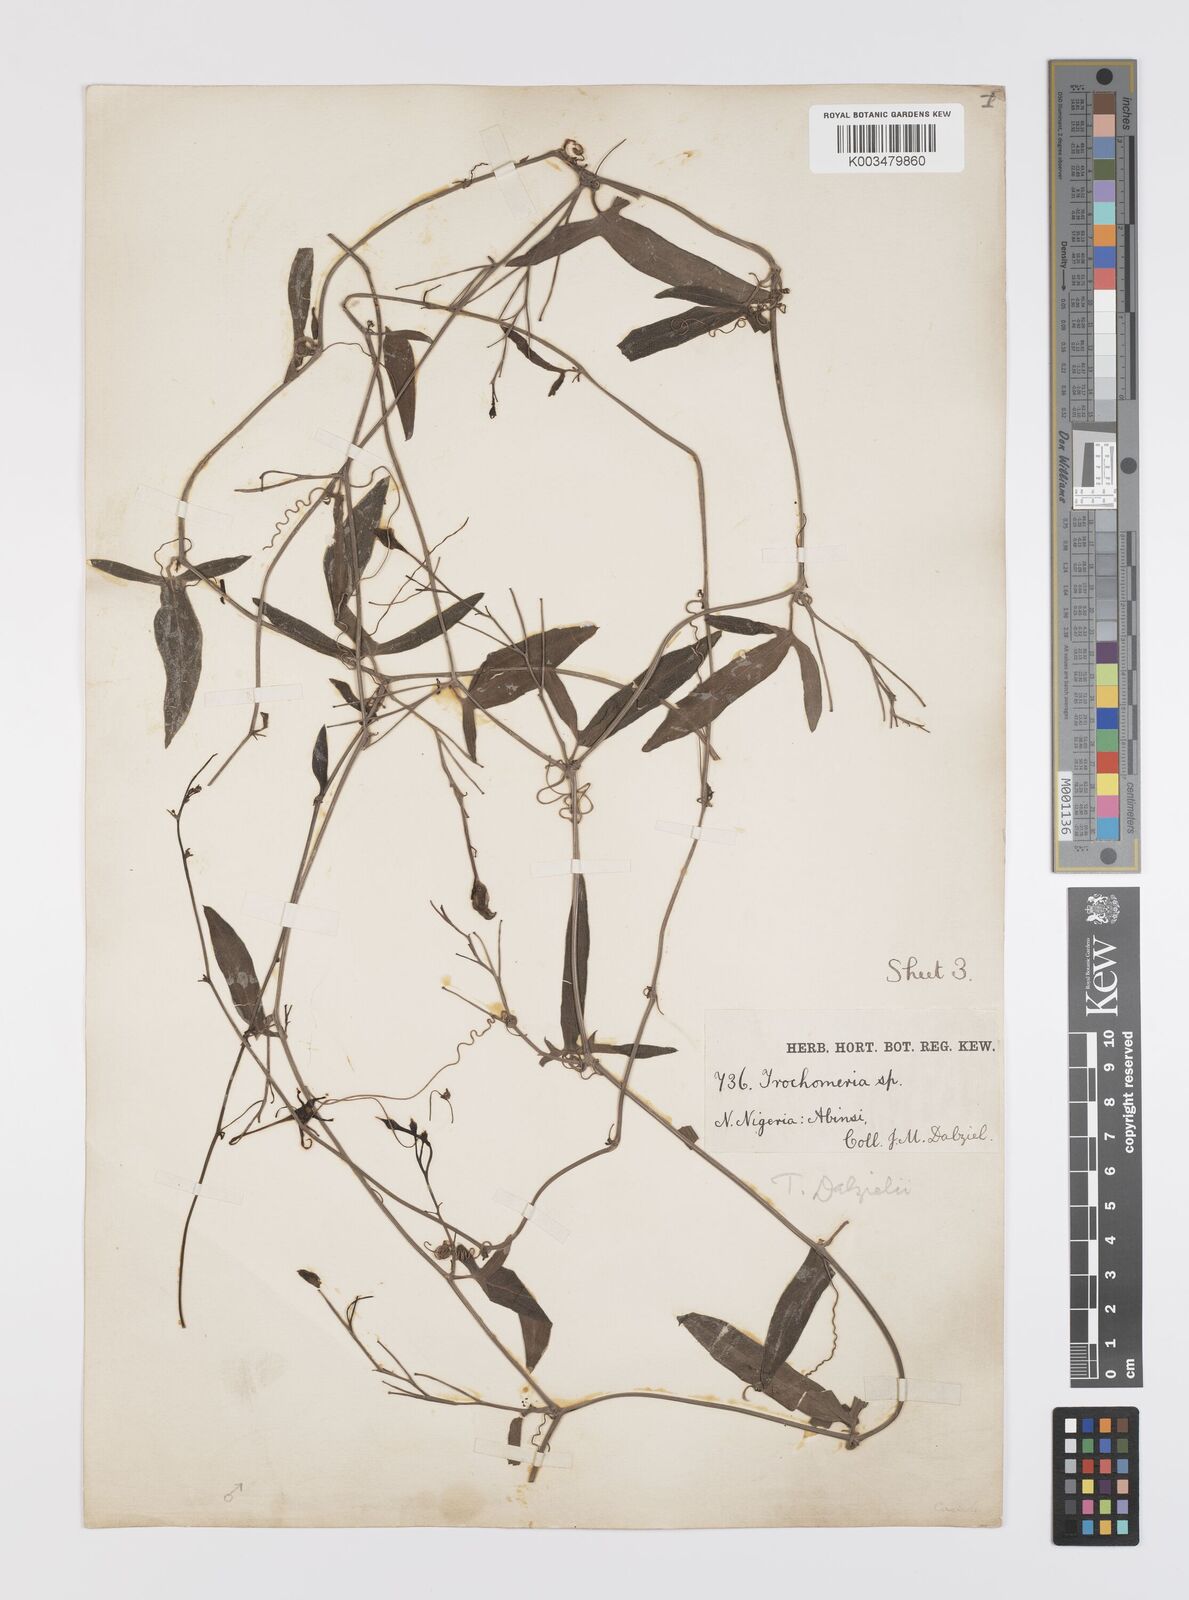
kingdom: Plantae
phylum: Tracheophyta
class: Magnoliopsida
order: Cucurbitales
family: Cucurbitaceae
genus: Trochomeria
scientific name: Trochomeria macrocarpa
